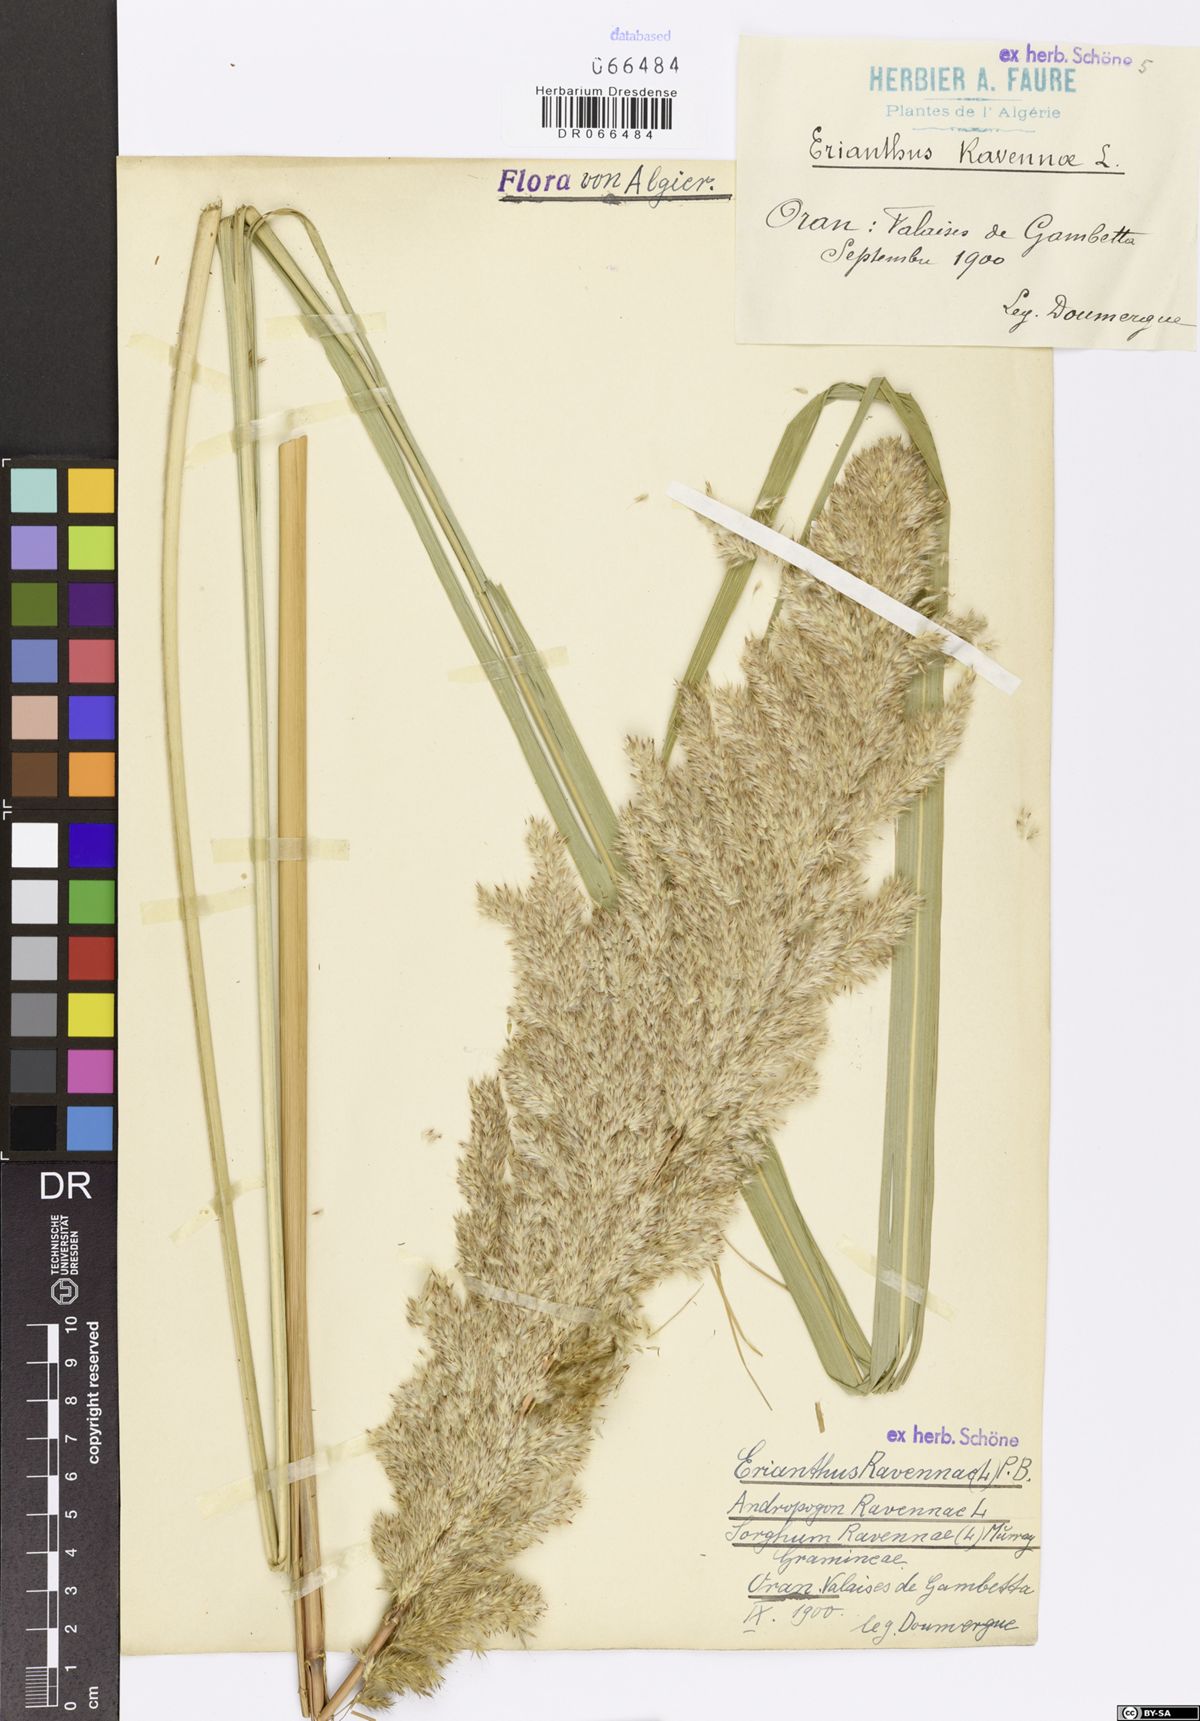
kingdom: Plantae
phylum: Tracheophyta
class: Liliopsida
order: Poales
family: Poaceae
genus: Tripidium
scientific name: Tripidium ravennae
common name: Ravenna grass
